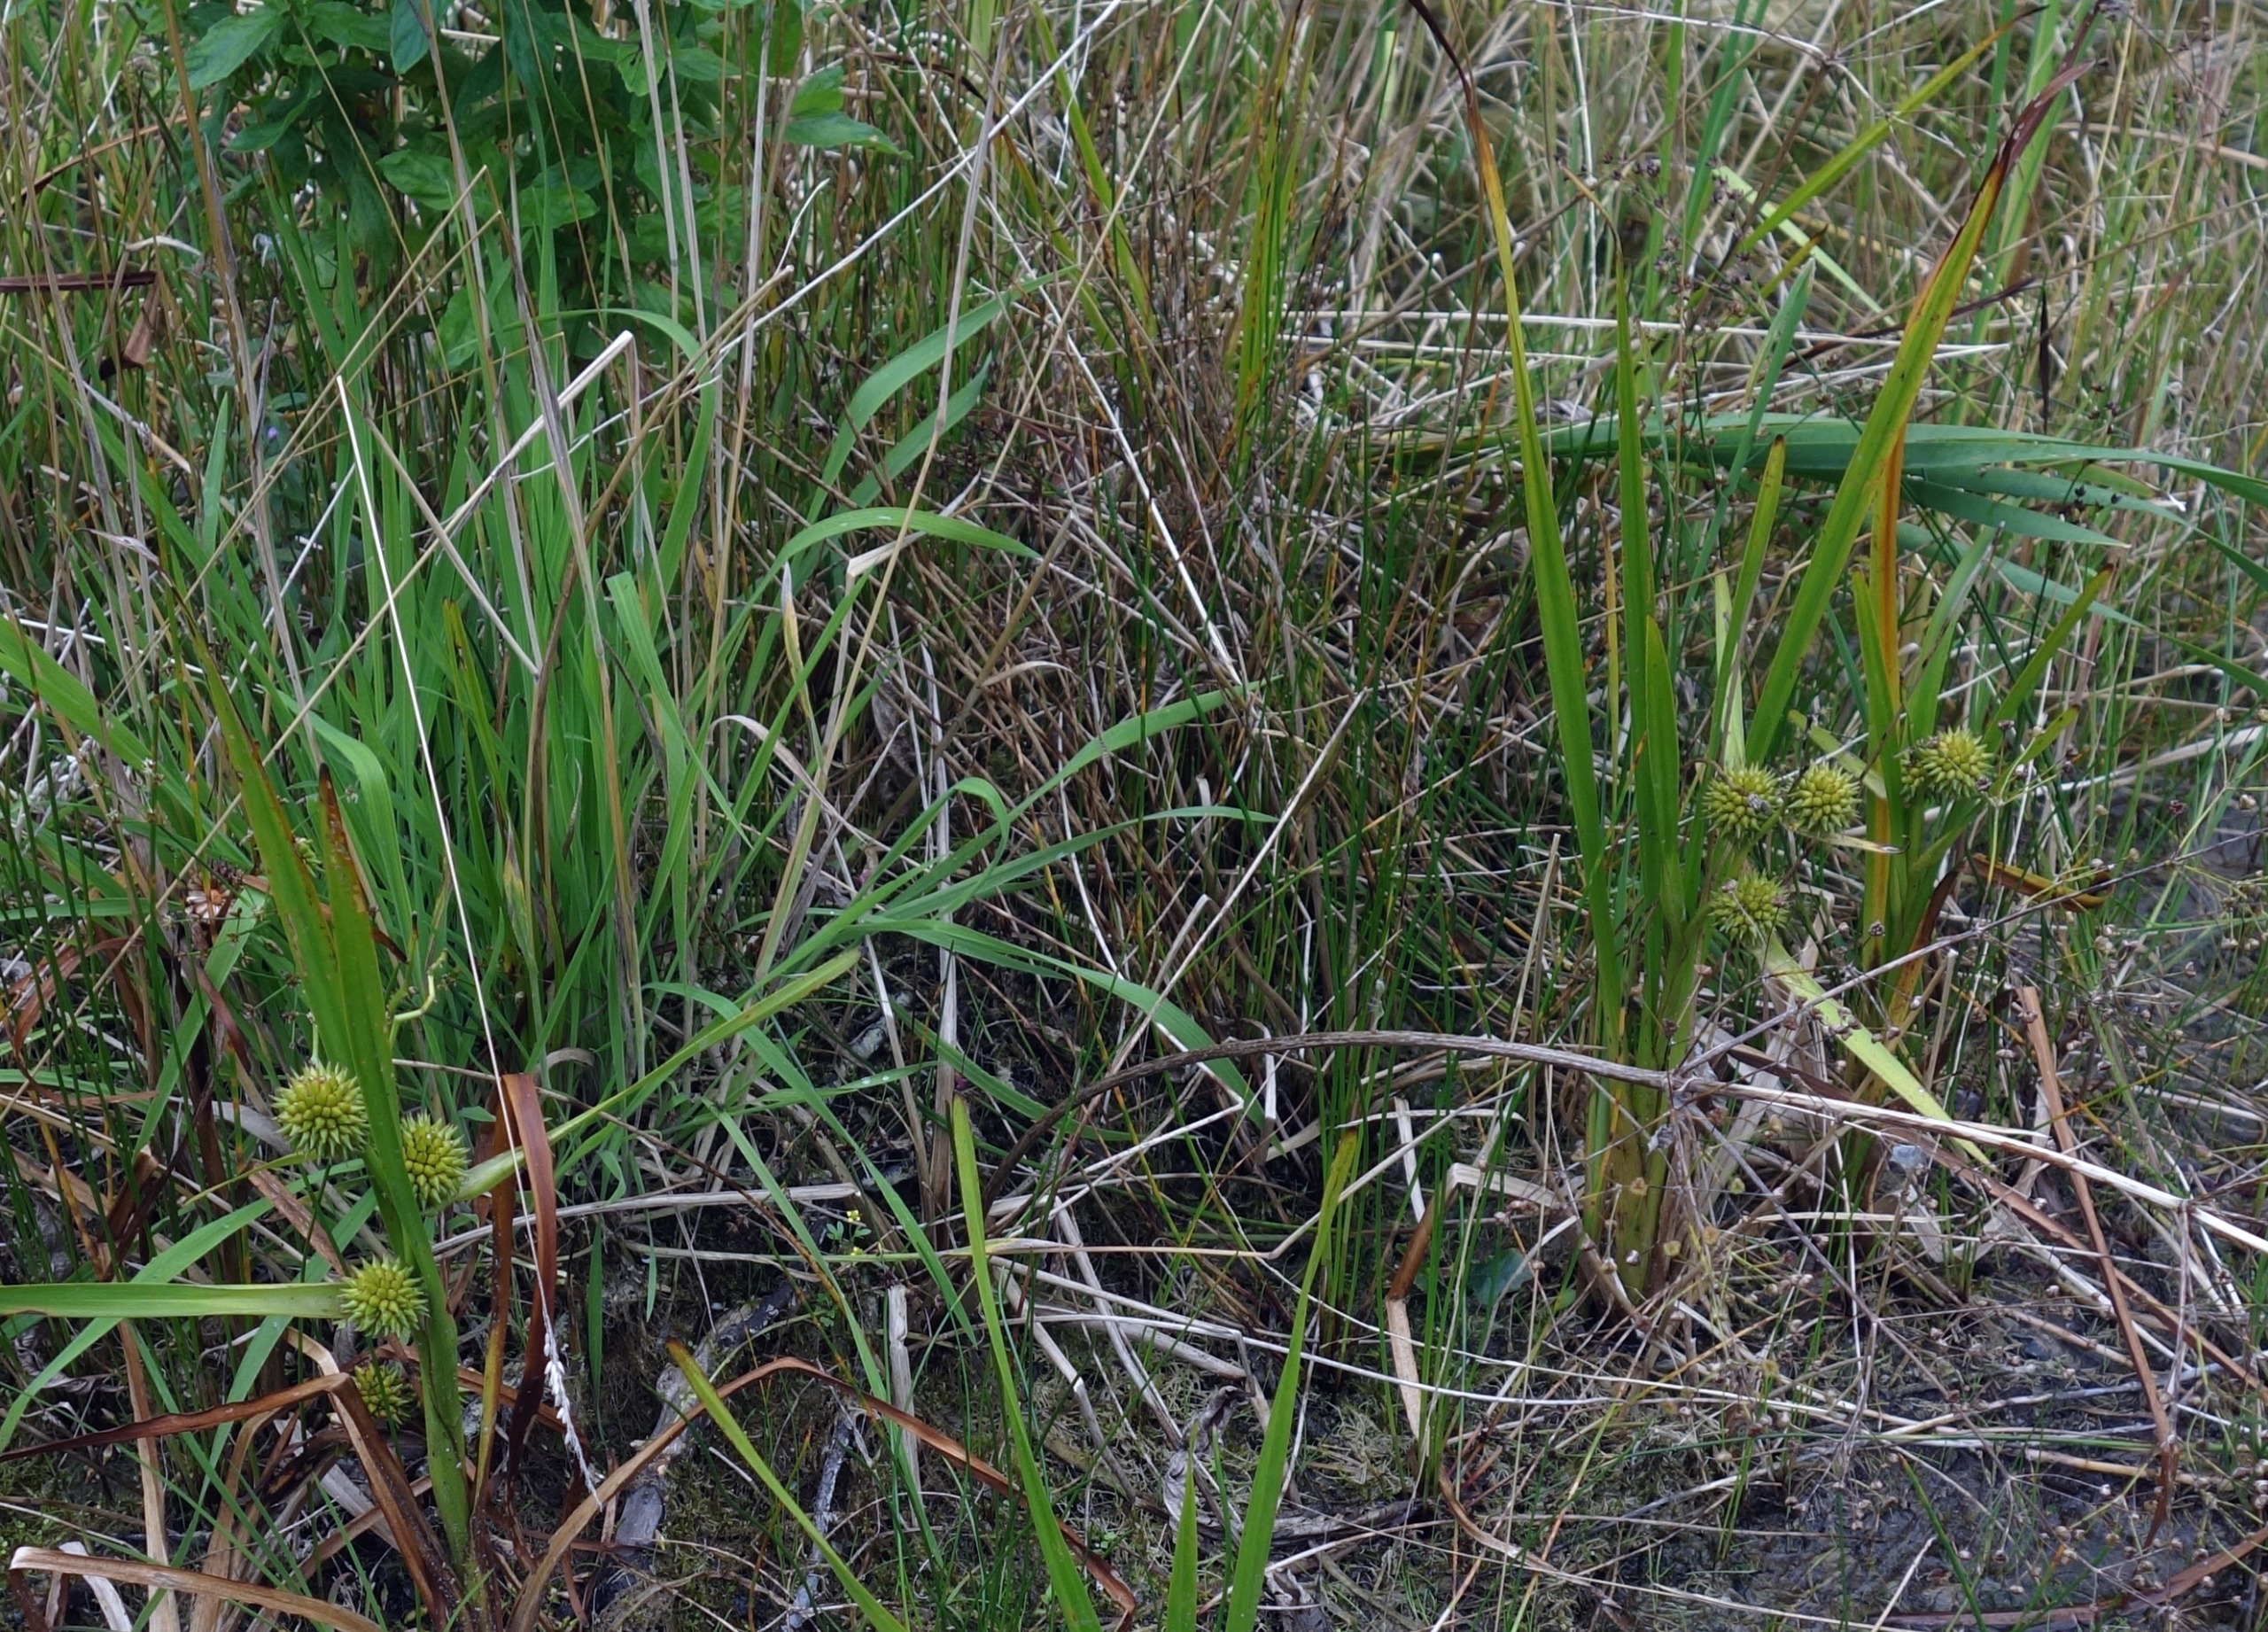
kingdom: Plantae
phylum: Tracheophyta
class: Liliopsida
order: Poales
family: Typhaceae
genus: Sparganium
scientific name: Sparganium erectum
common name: Grenet pindsvineknop
